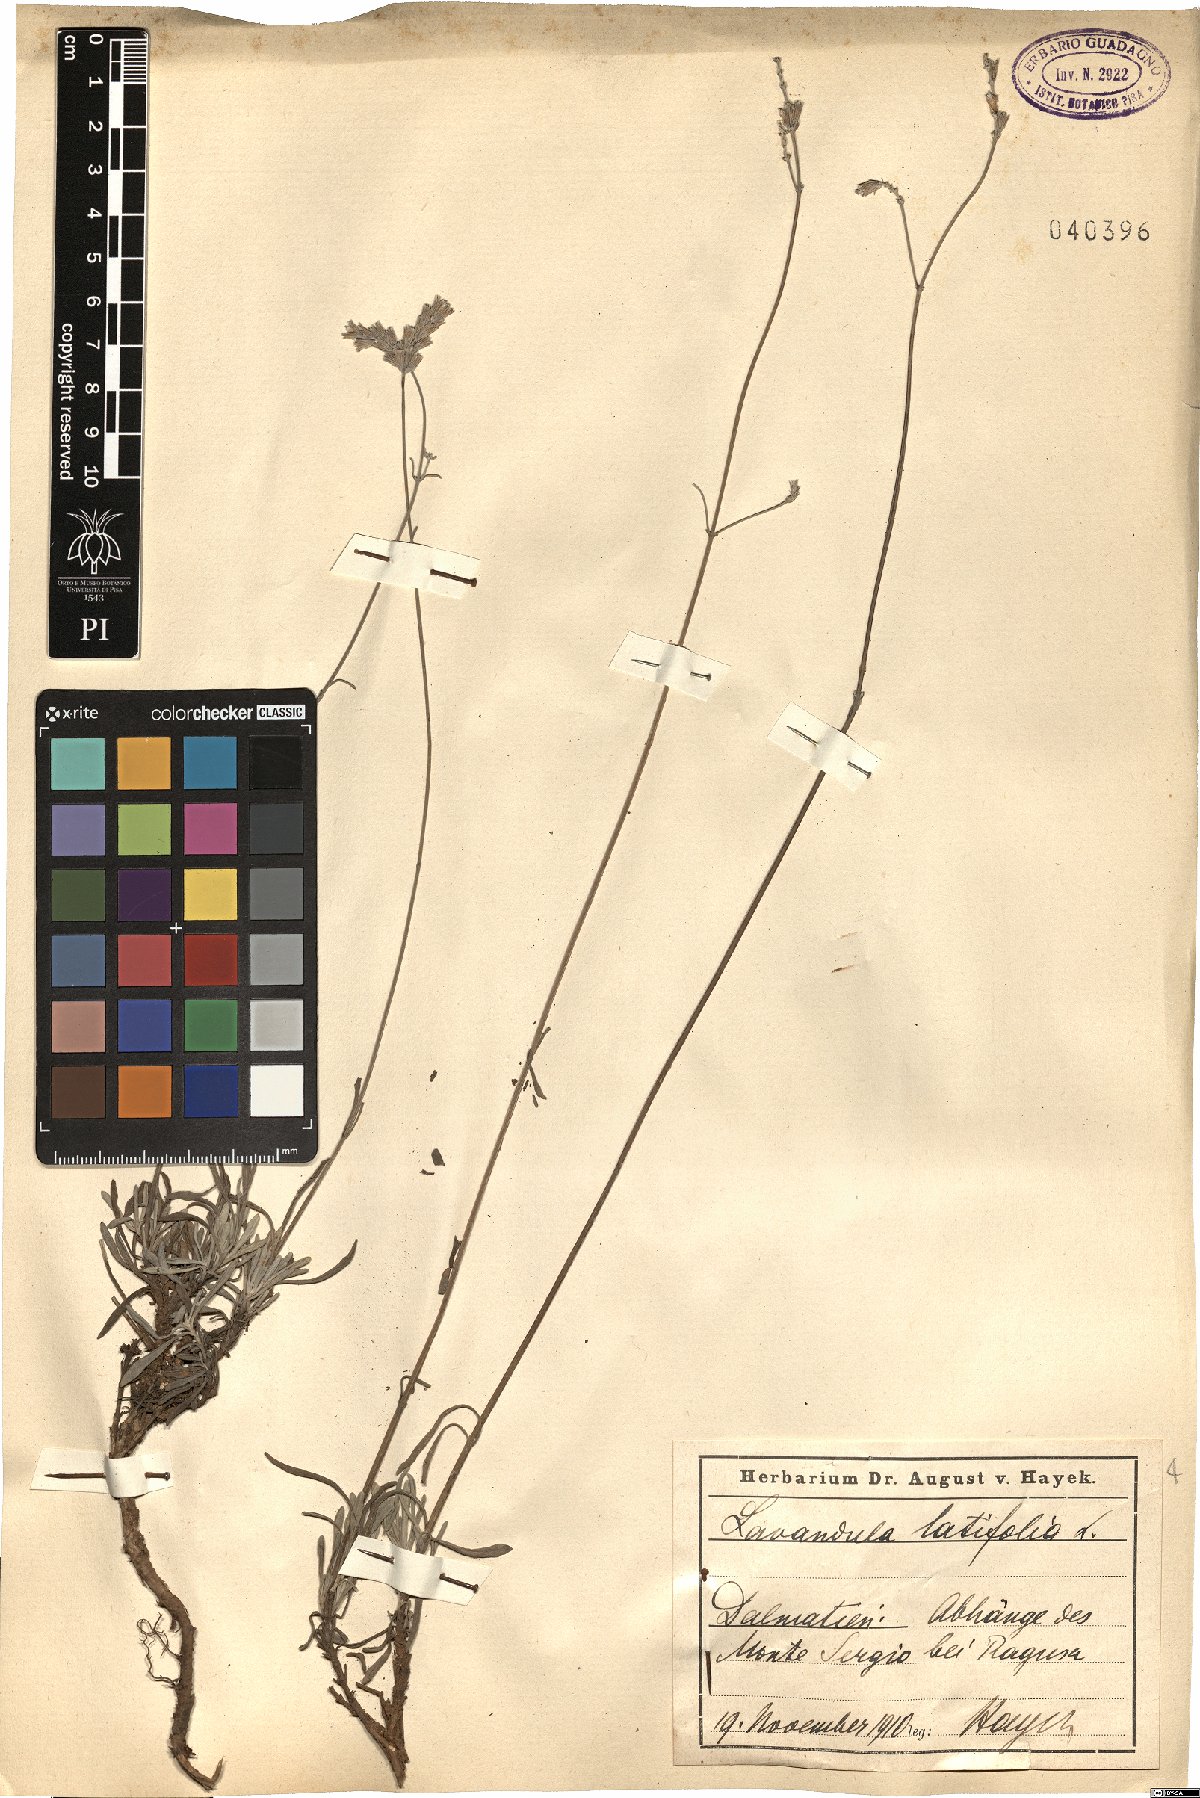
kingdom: Plantae
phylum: Tracheophyta
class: Magnoliopsida
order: Lamiales
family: Lamiaceae
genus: Lavandula
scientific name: Lavandula latifolia
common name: Spike lavendar
